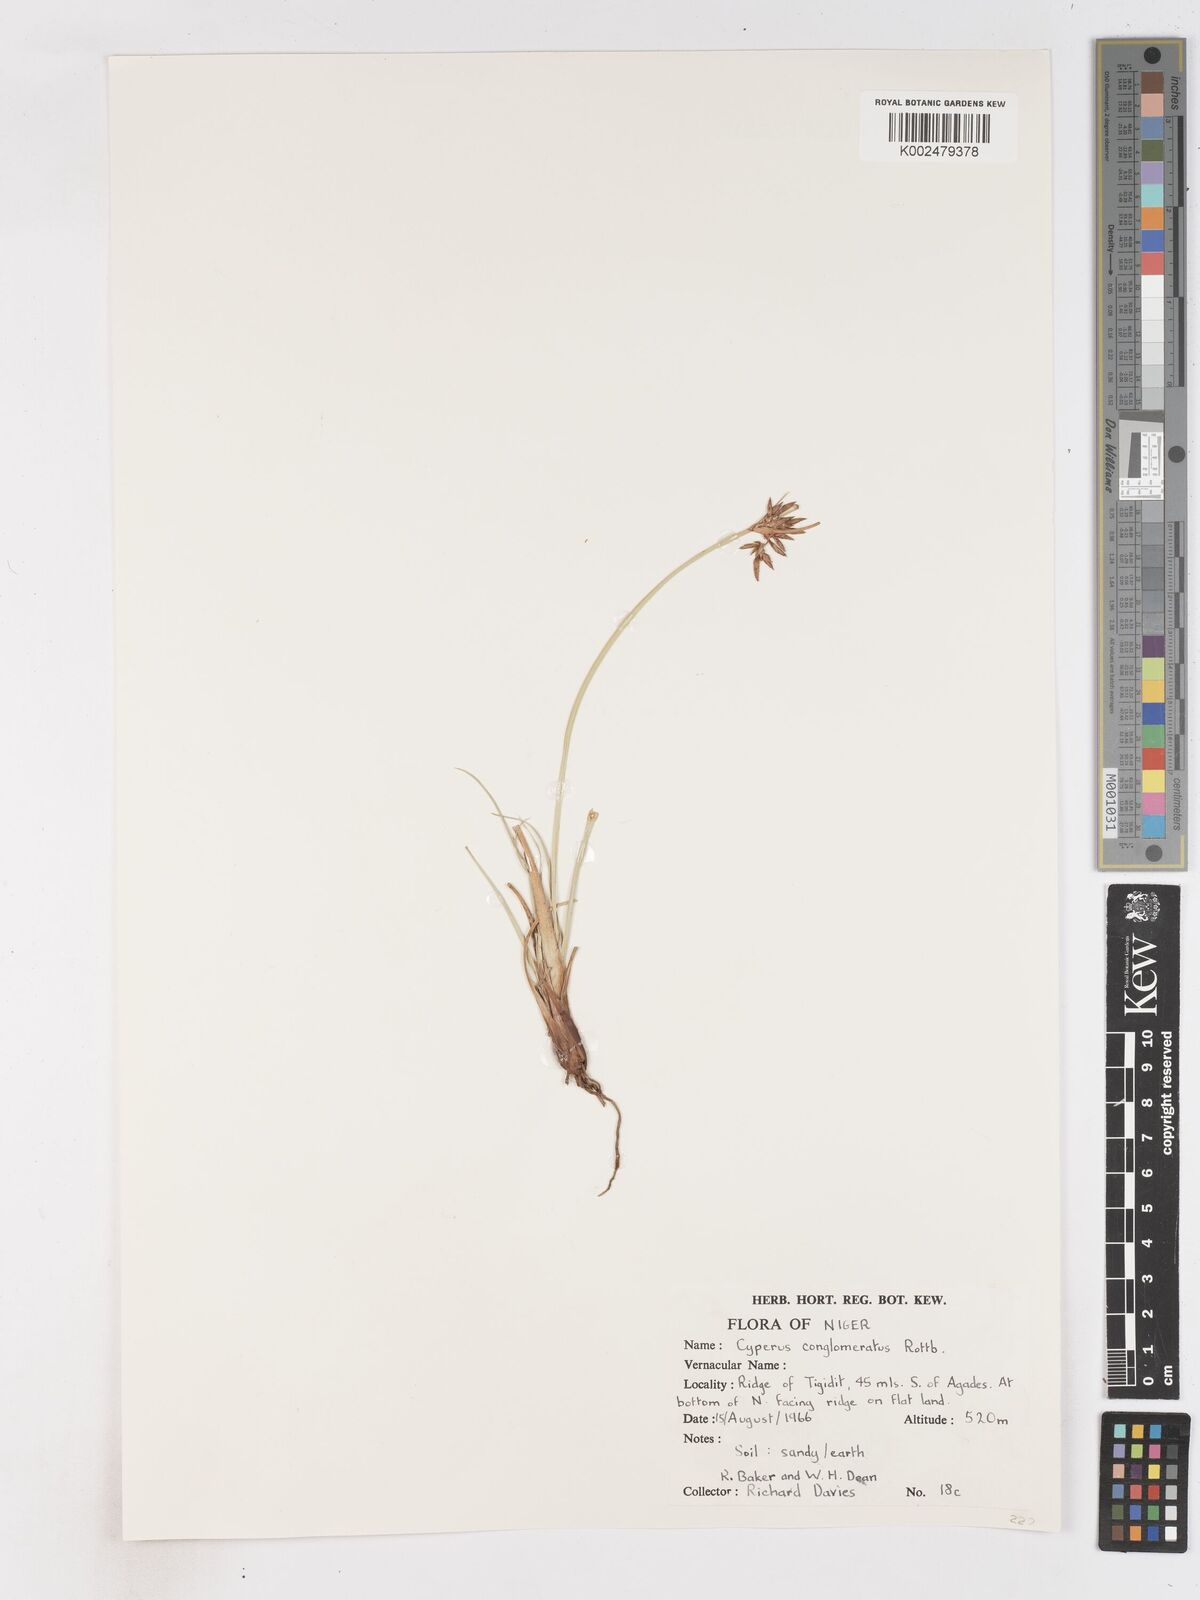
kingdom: Plantae
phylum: Tracheophyta
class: Liliopsida
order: Poales
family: Cyperaceae
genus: Cyperus
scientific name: Cyperus conglomeratus
